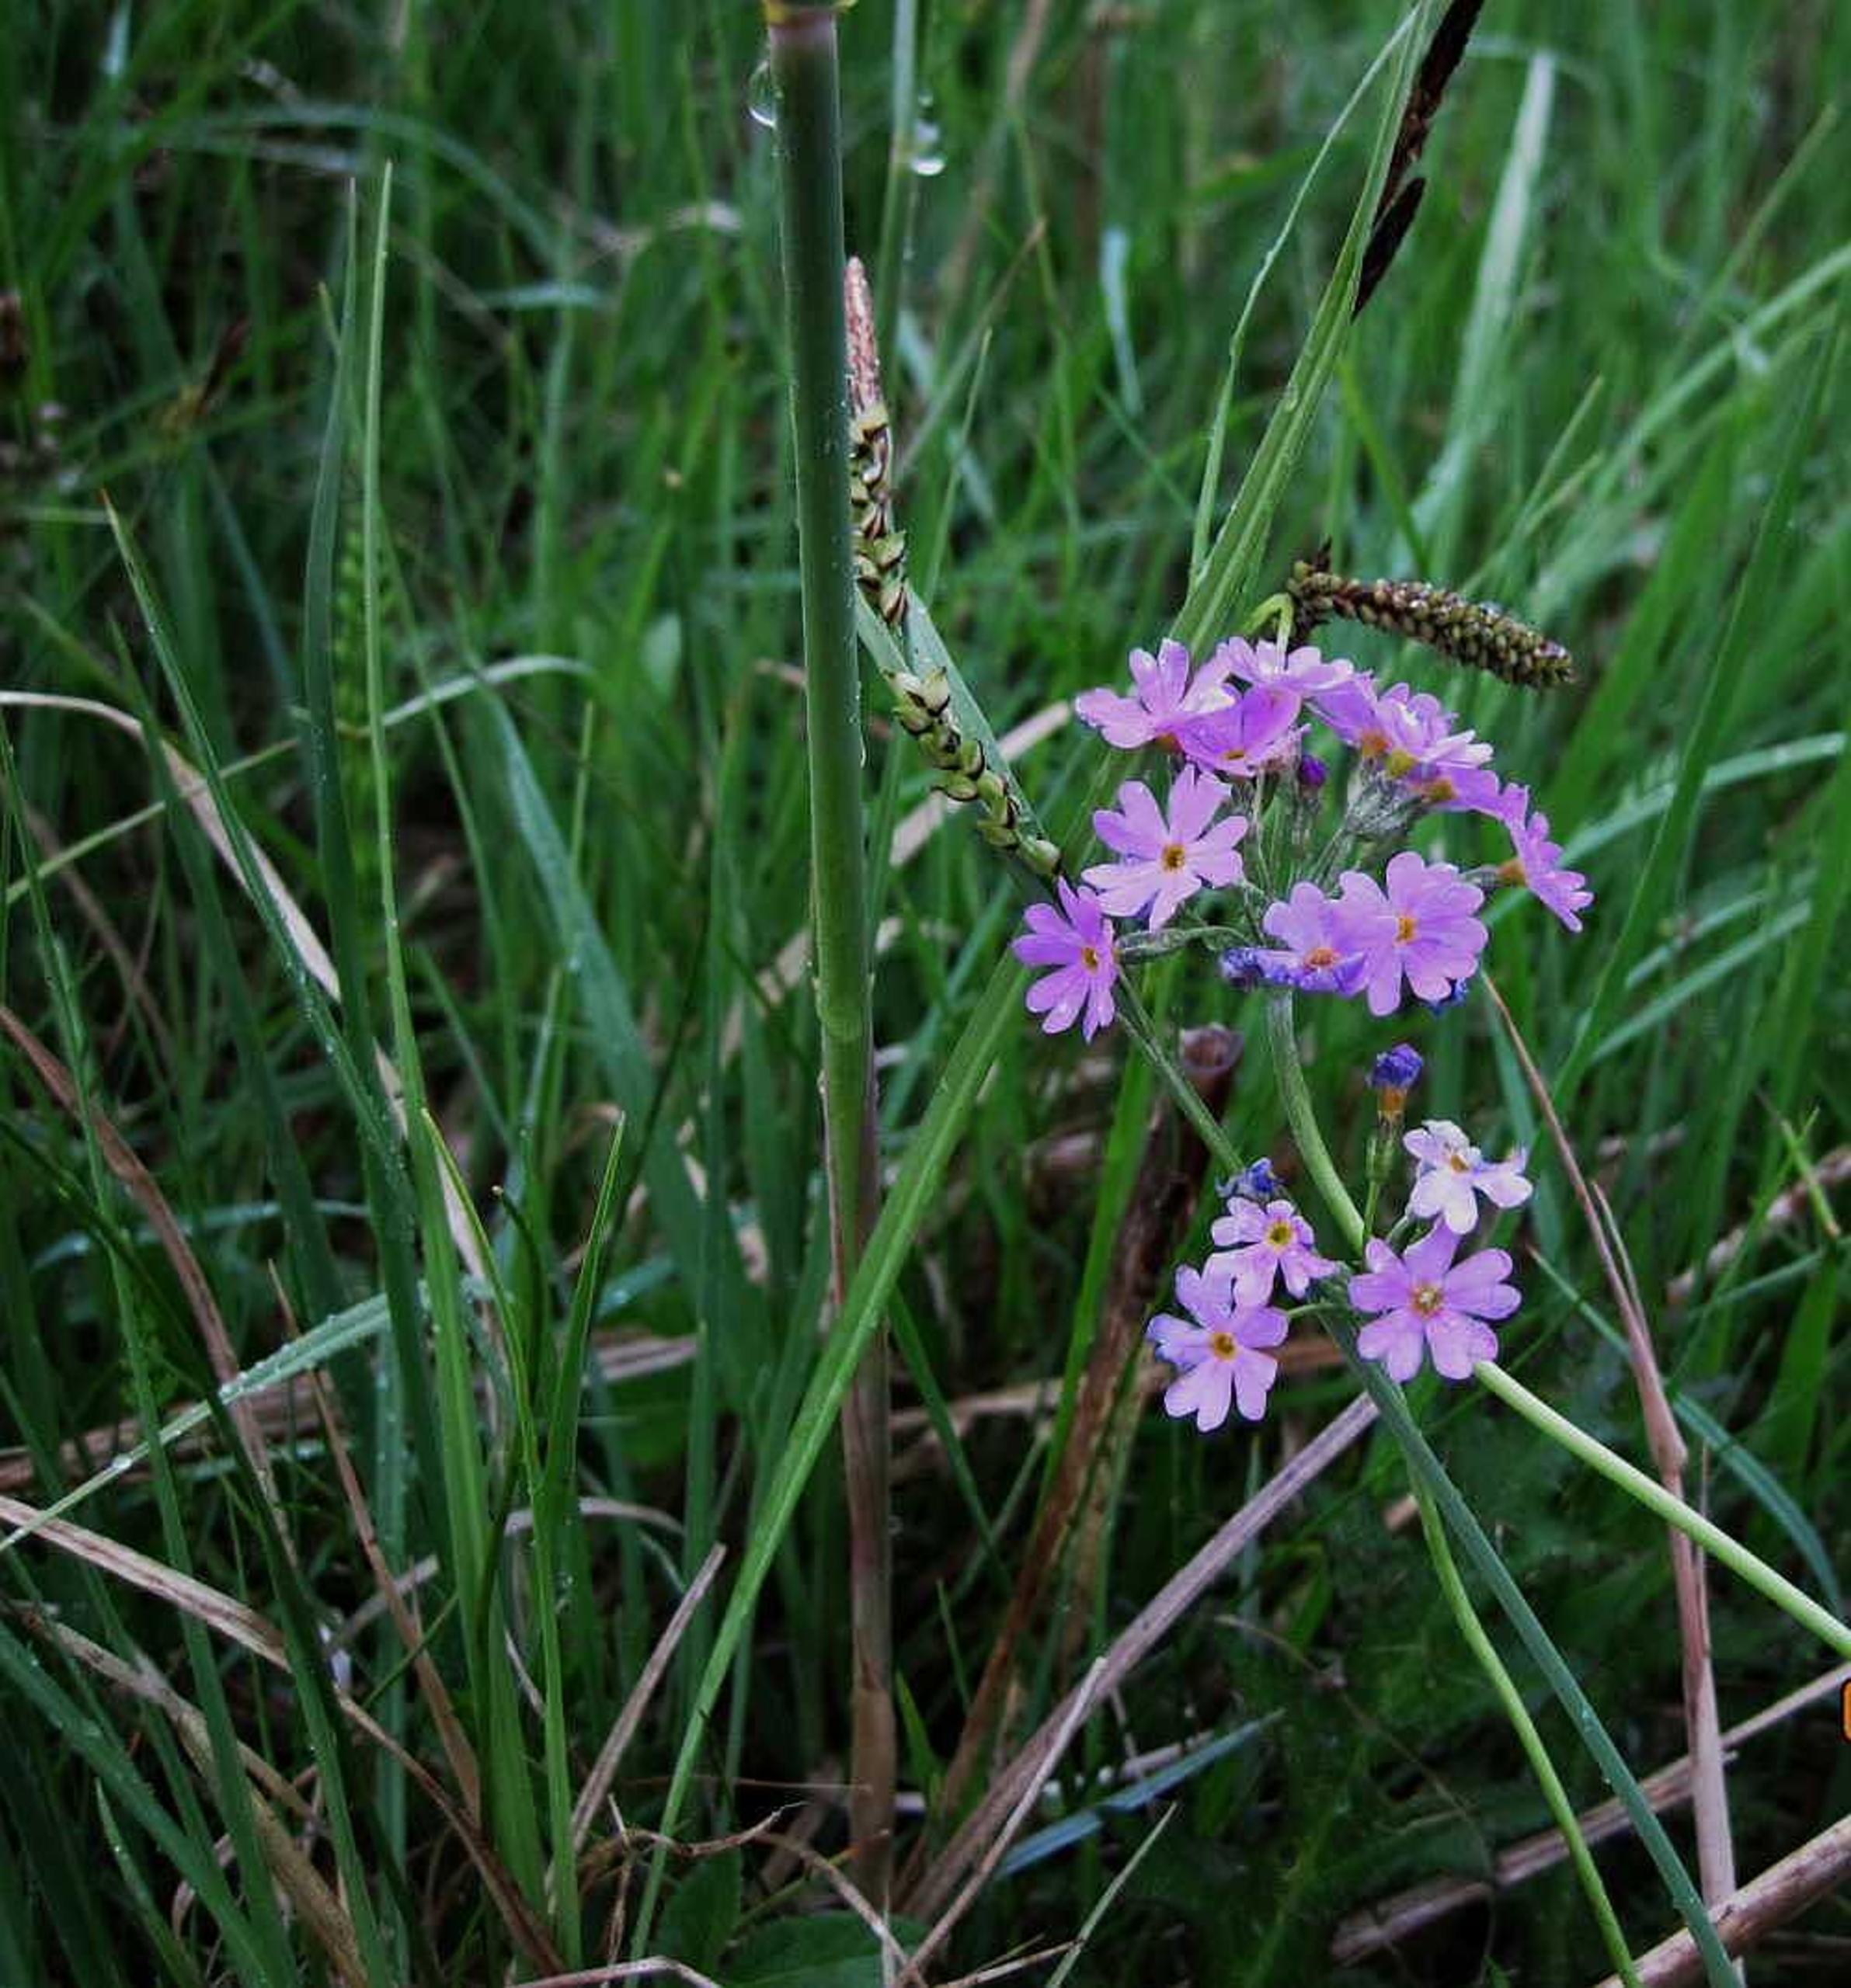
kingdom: Plantae
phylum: Tracheophyta
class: Magnoliopsida
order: Ericales
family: Primulaceae
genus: Primula
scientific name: Primula farinosa
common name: Melet kodriver
